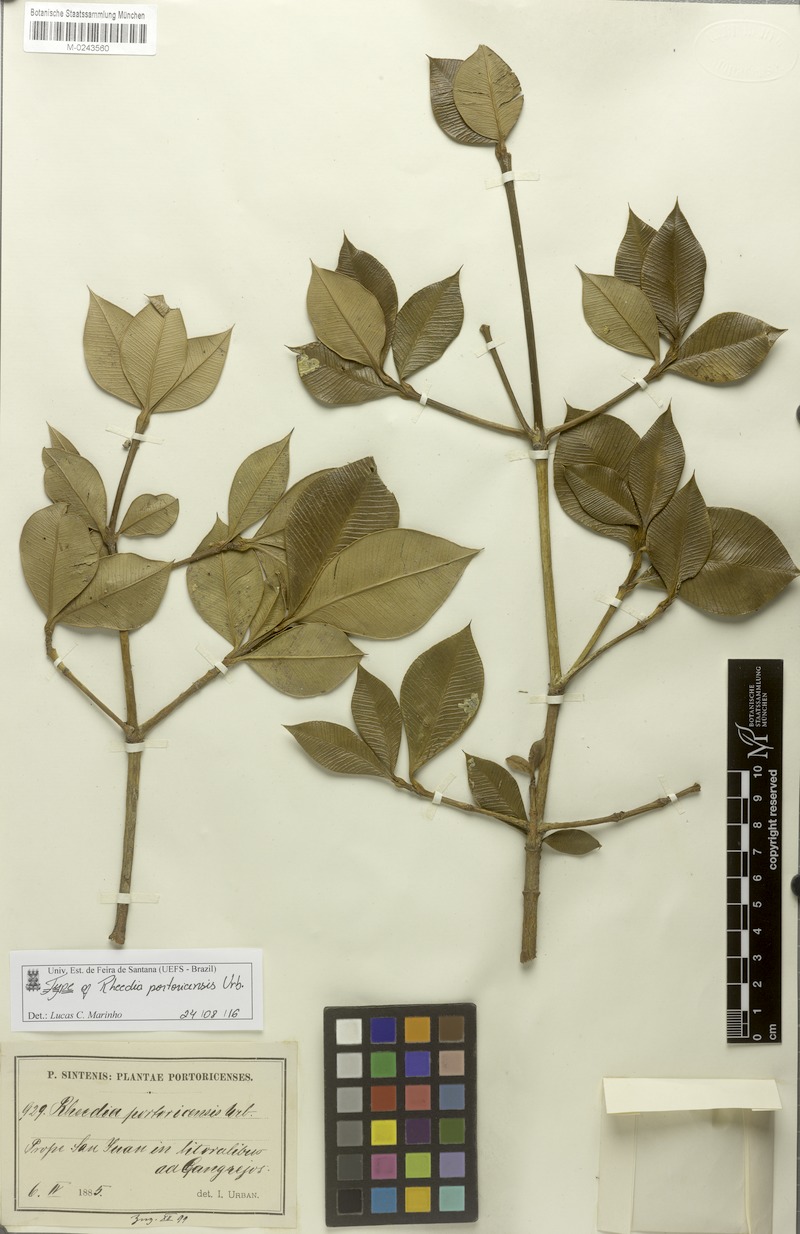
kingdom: Plantae
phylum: Tracheophyta
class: Magnoliopsida
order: Malpighiales
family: Clusiaceae
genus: Garcinia
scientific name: Garcinia portoricensis
